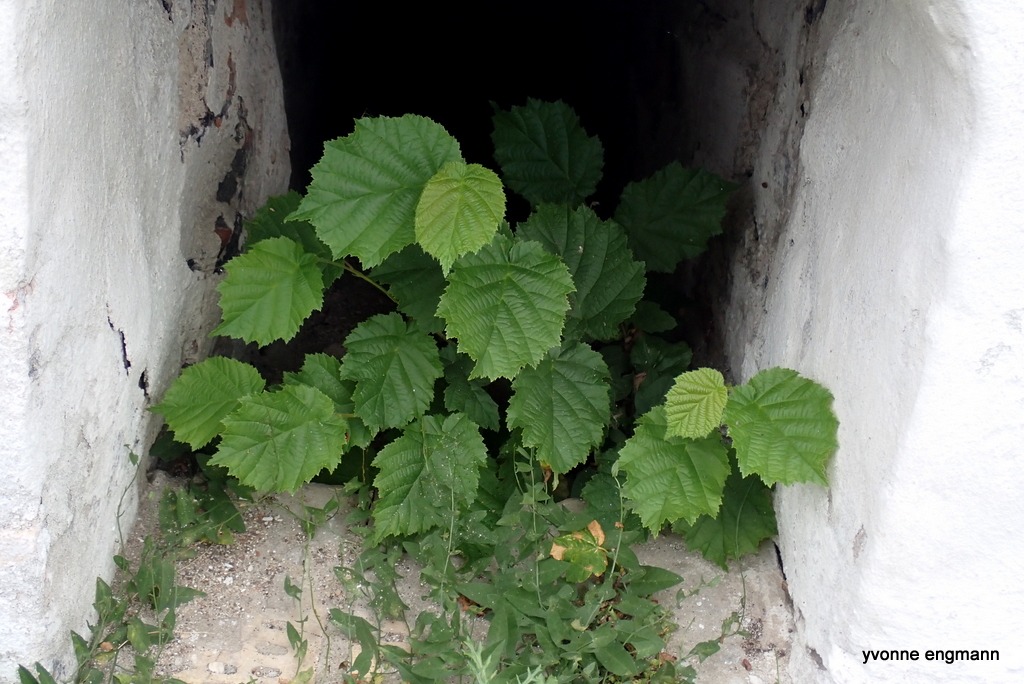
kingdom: Plantae
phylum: Tracheophyta
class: Magnoliopsida
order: Fagales
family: Betulaceae
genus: Corylus
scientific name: Corylus avellana
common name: Hassel
